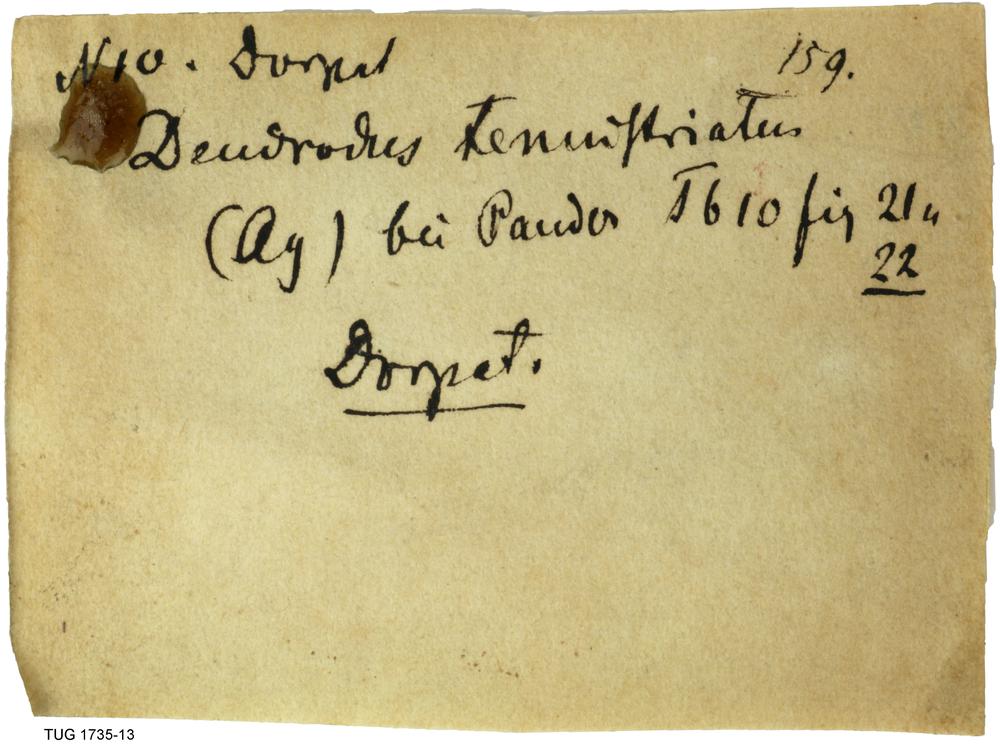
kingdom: Animalia
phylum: Chordata
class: Elasmobranchii
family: Protodontidae
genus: Dendrodus
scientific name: Dendrodus
